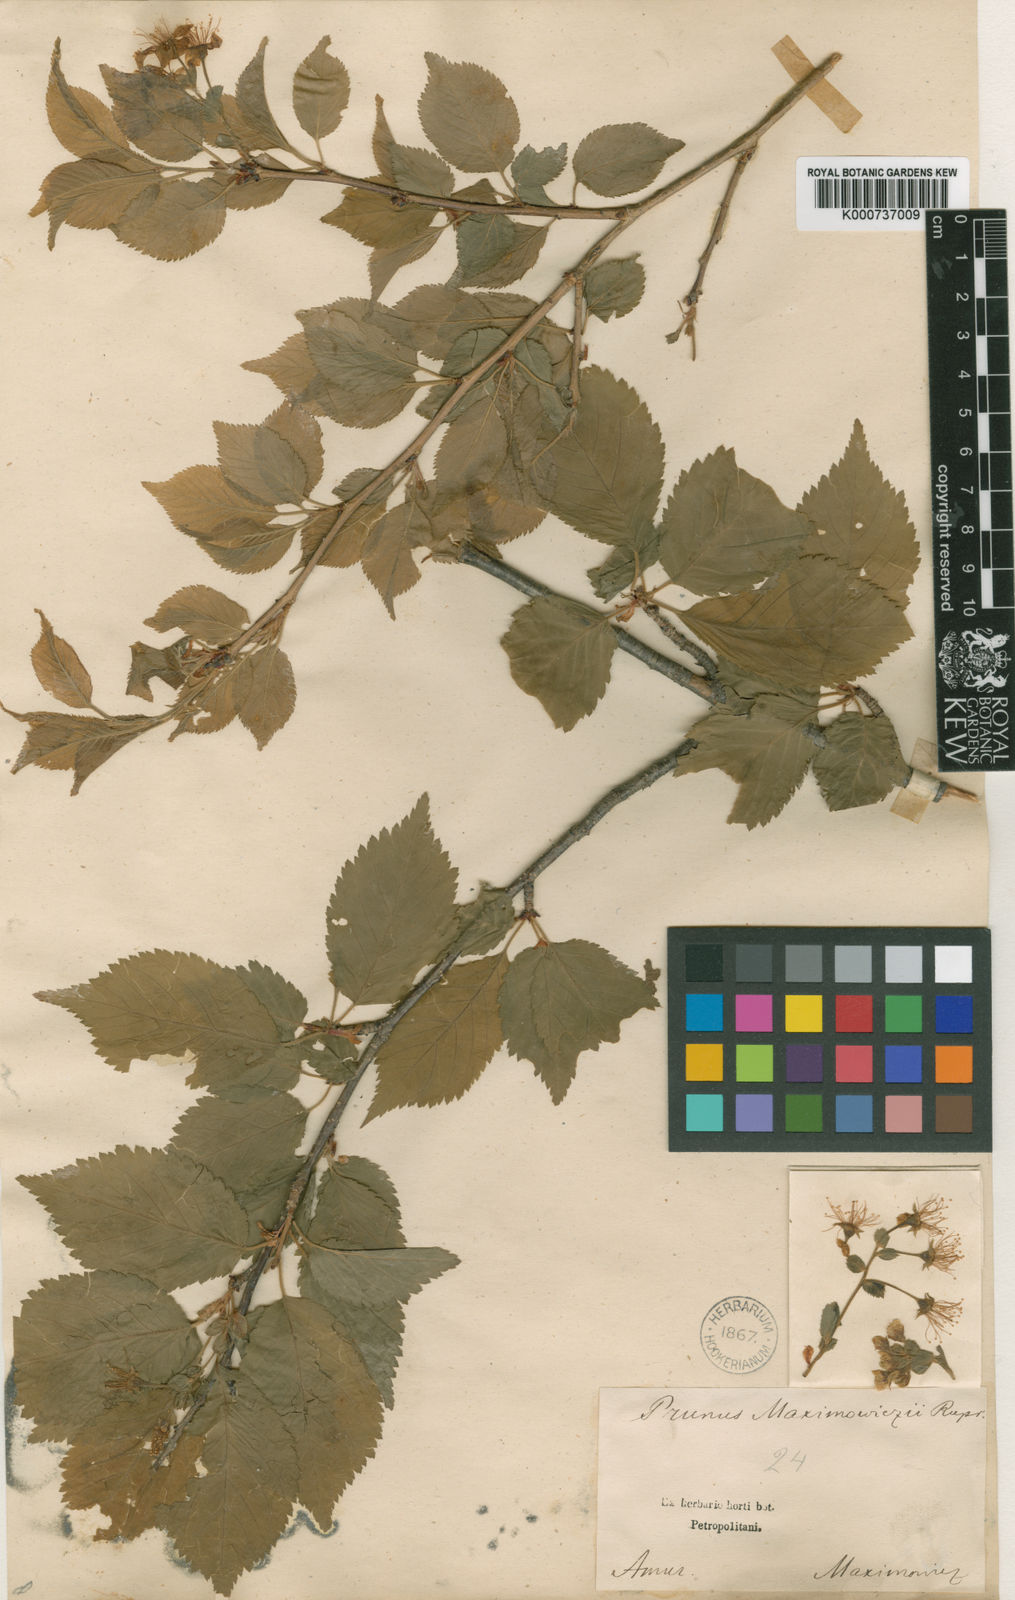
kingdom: Plantae
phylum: Tracheophyta
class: Magnoliopsida
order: Rosales
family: Rosaceae
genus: Prunus
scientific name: Prunus maximowiczii
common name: Korean cherry
